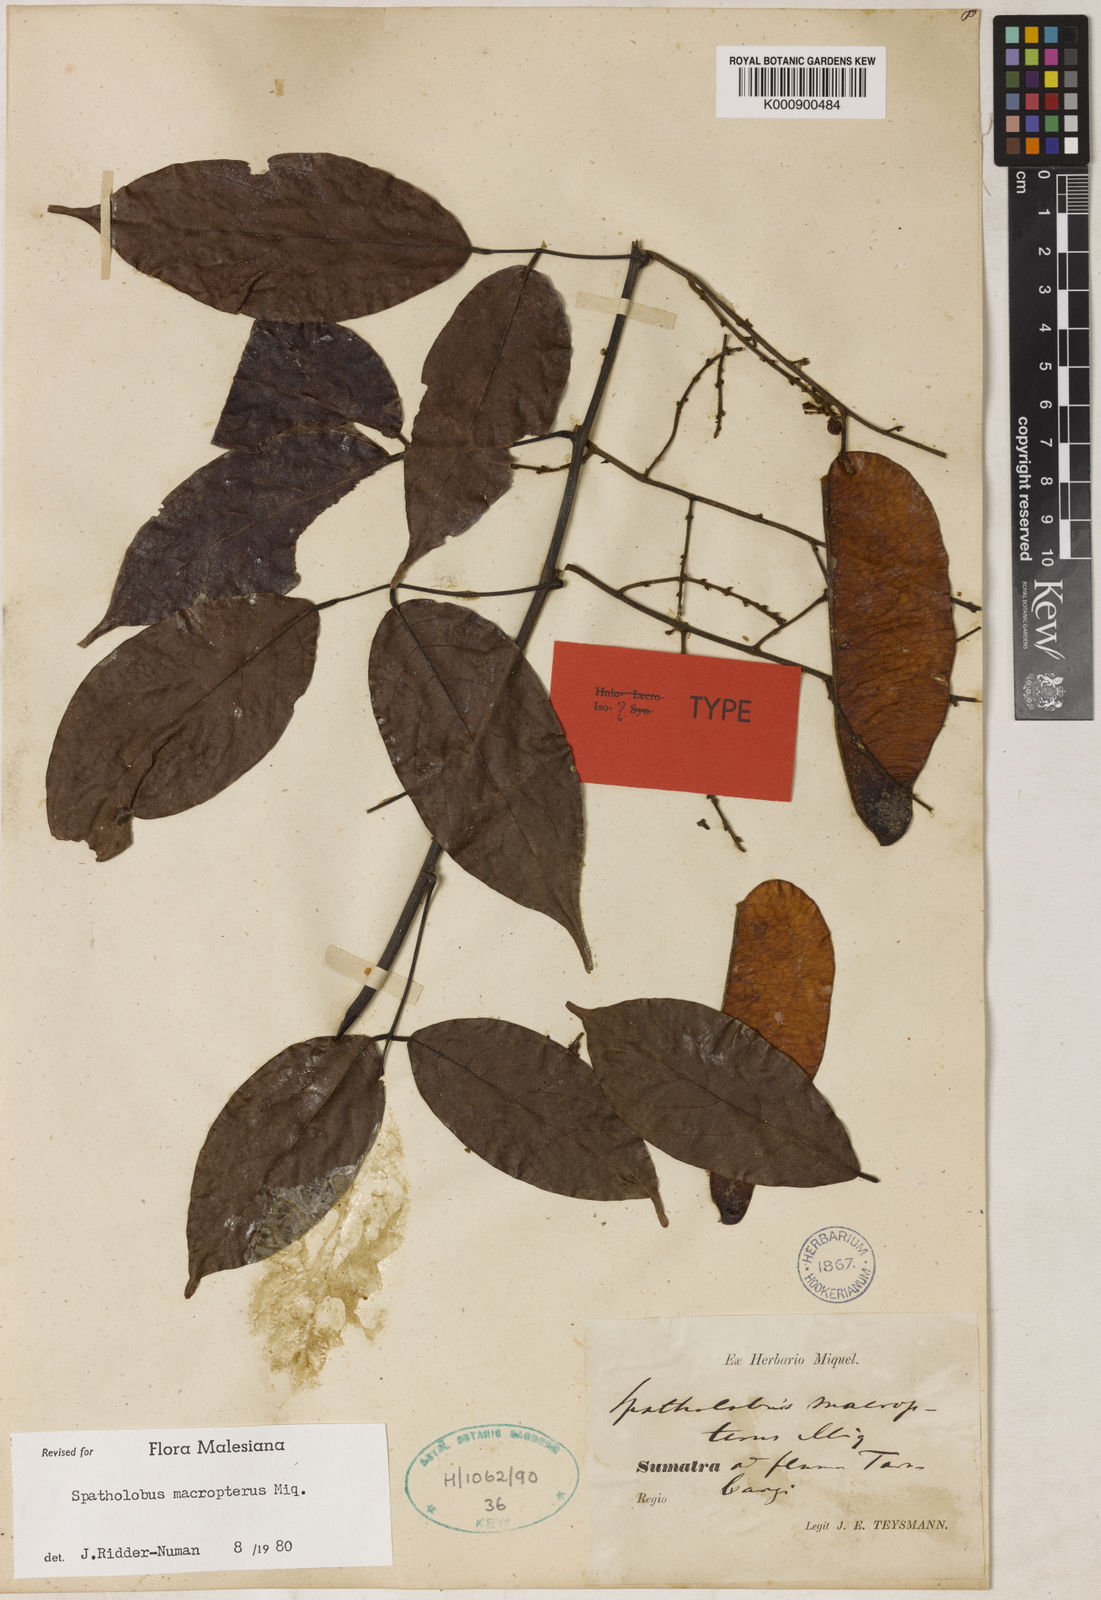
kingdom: Plantae
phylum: Tracheophyta
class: Magnoliopsida
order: Fabales
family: Fabaceae
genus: Spatholobus
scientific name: Spatholobus macropterus
